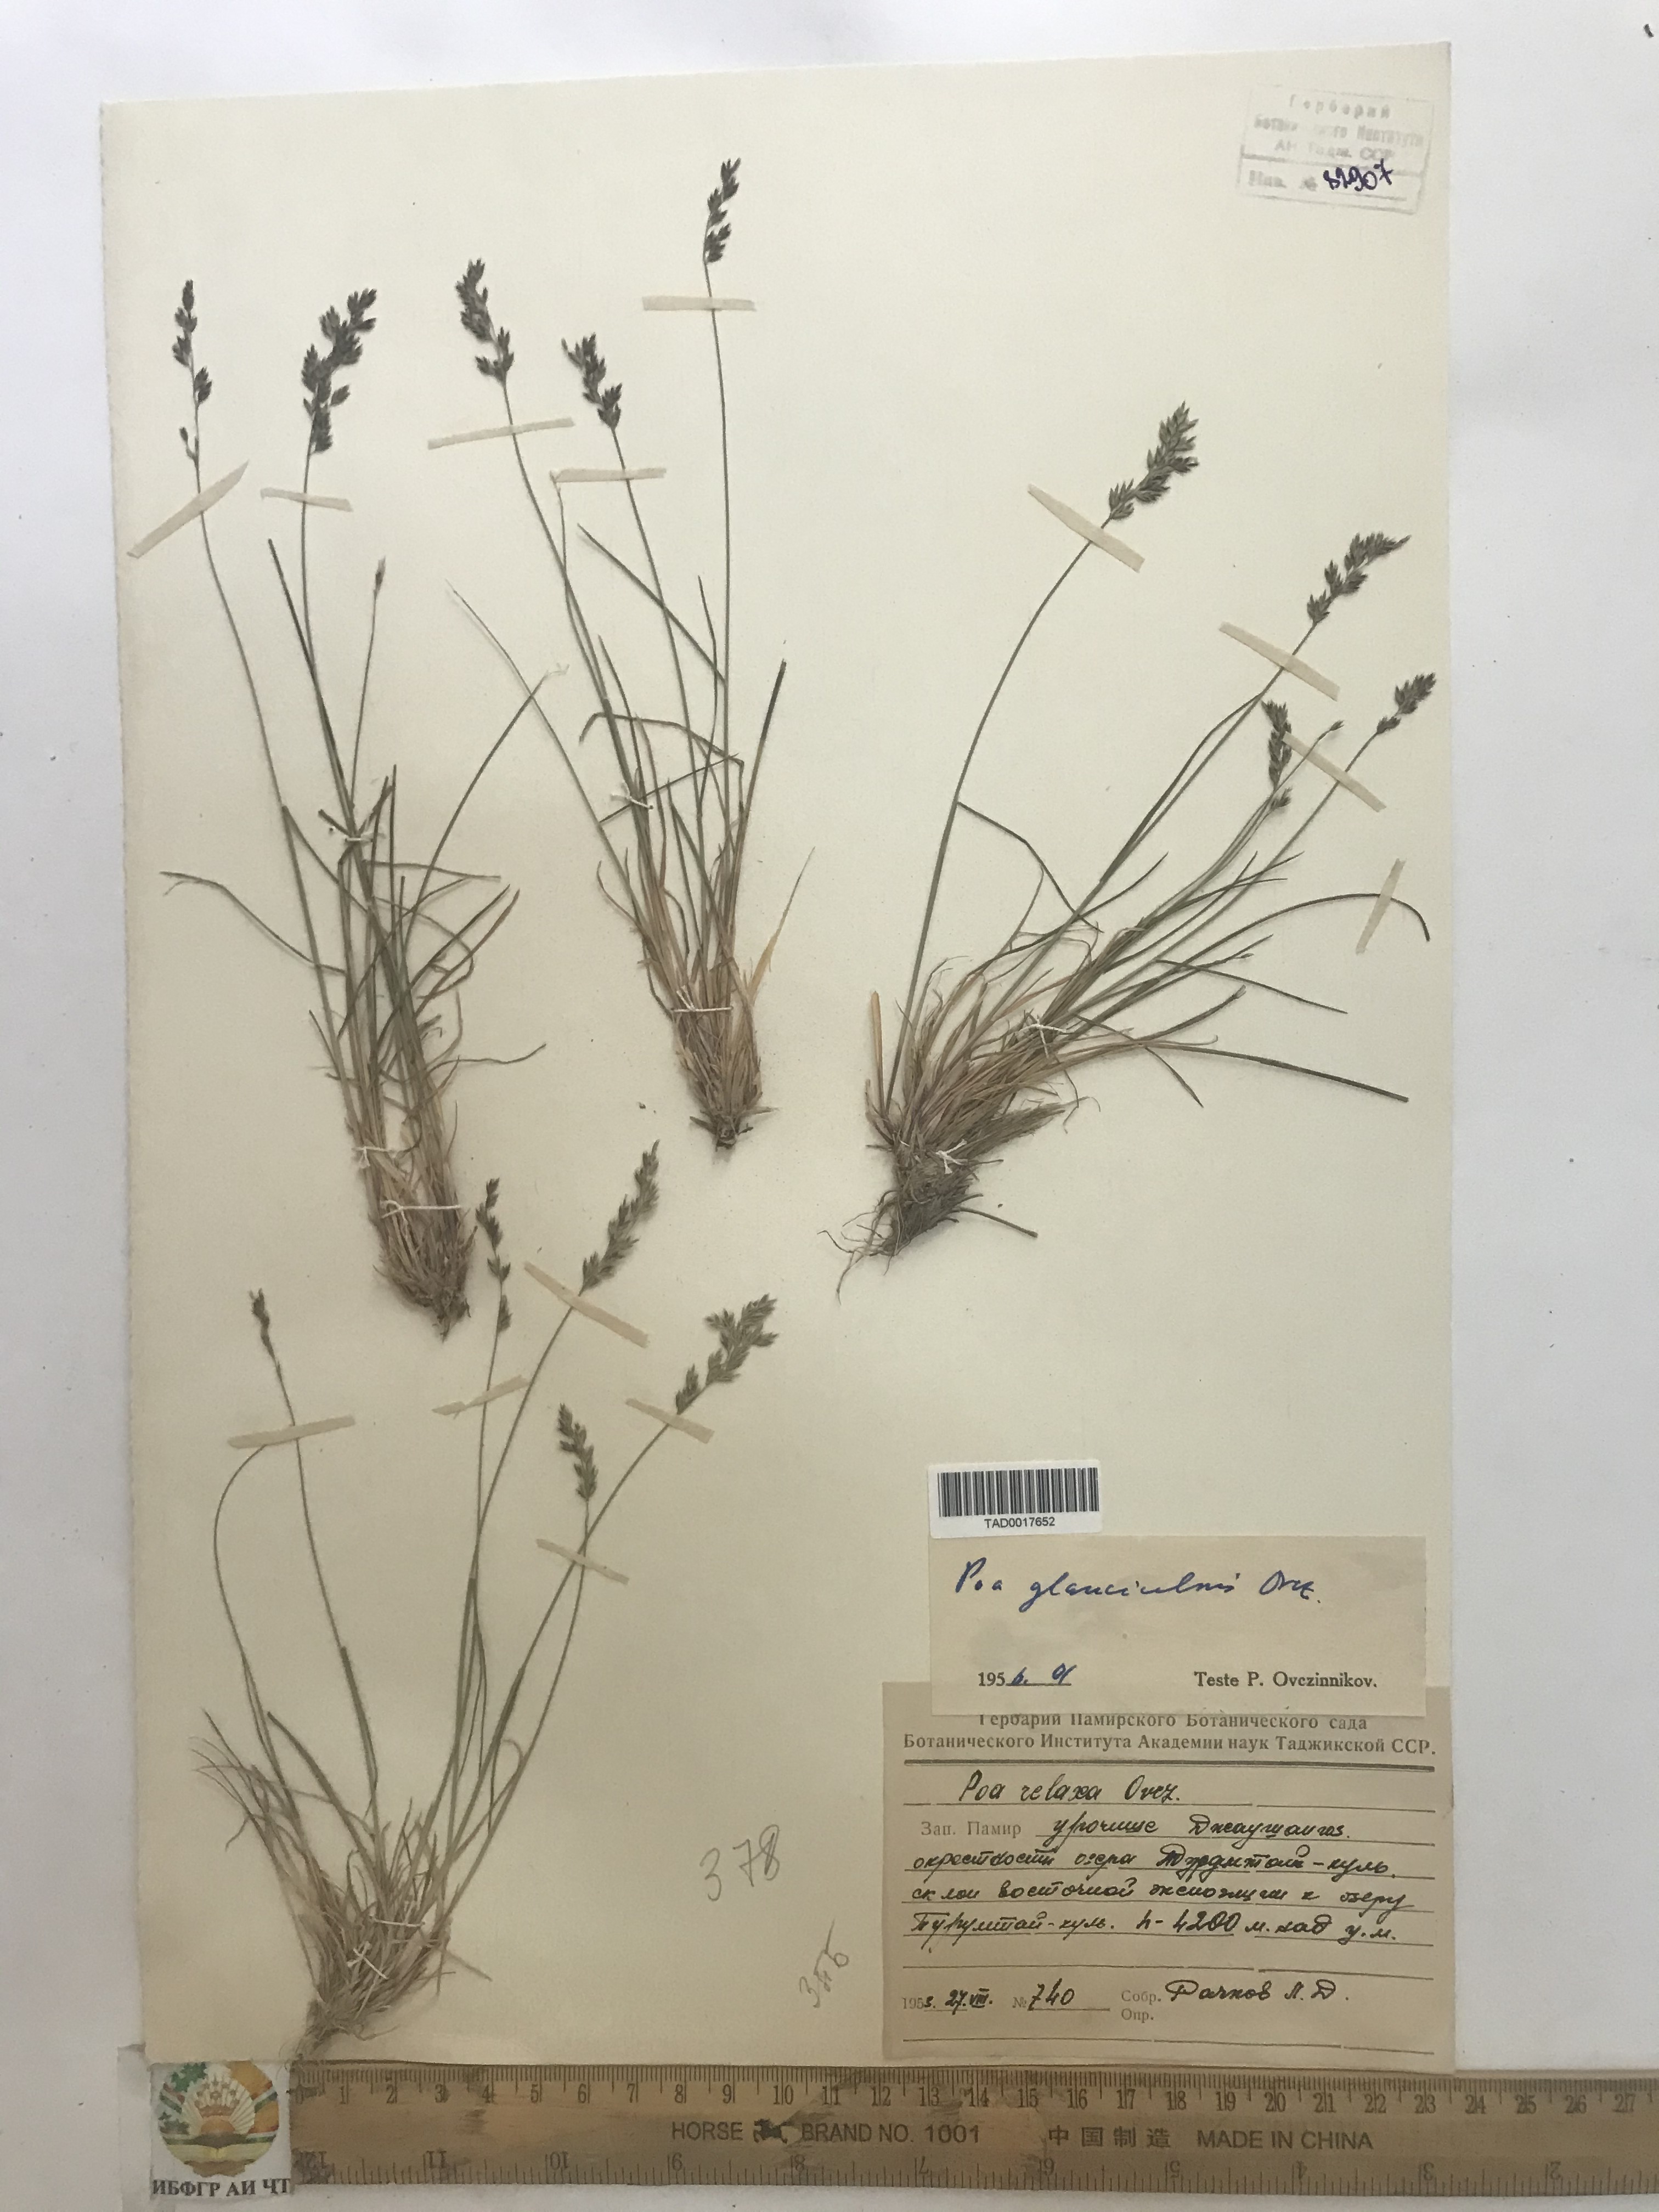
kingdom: Plantae
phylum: Tracheophyta
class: Liliopsida
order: Poales
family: Poaceae
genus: Poa
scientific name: Poa glauca
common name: Glaucous bluegrass
